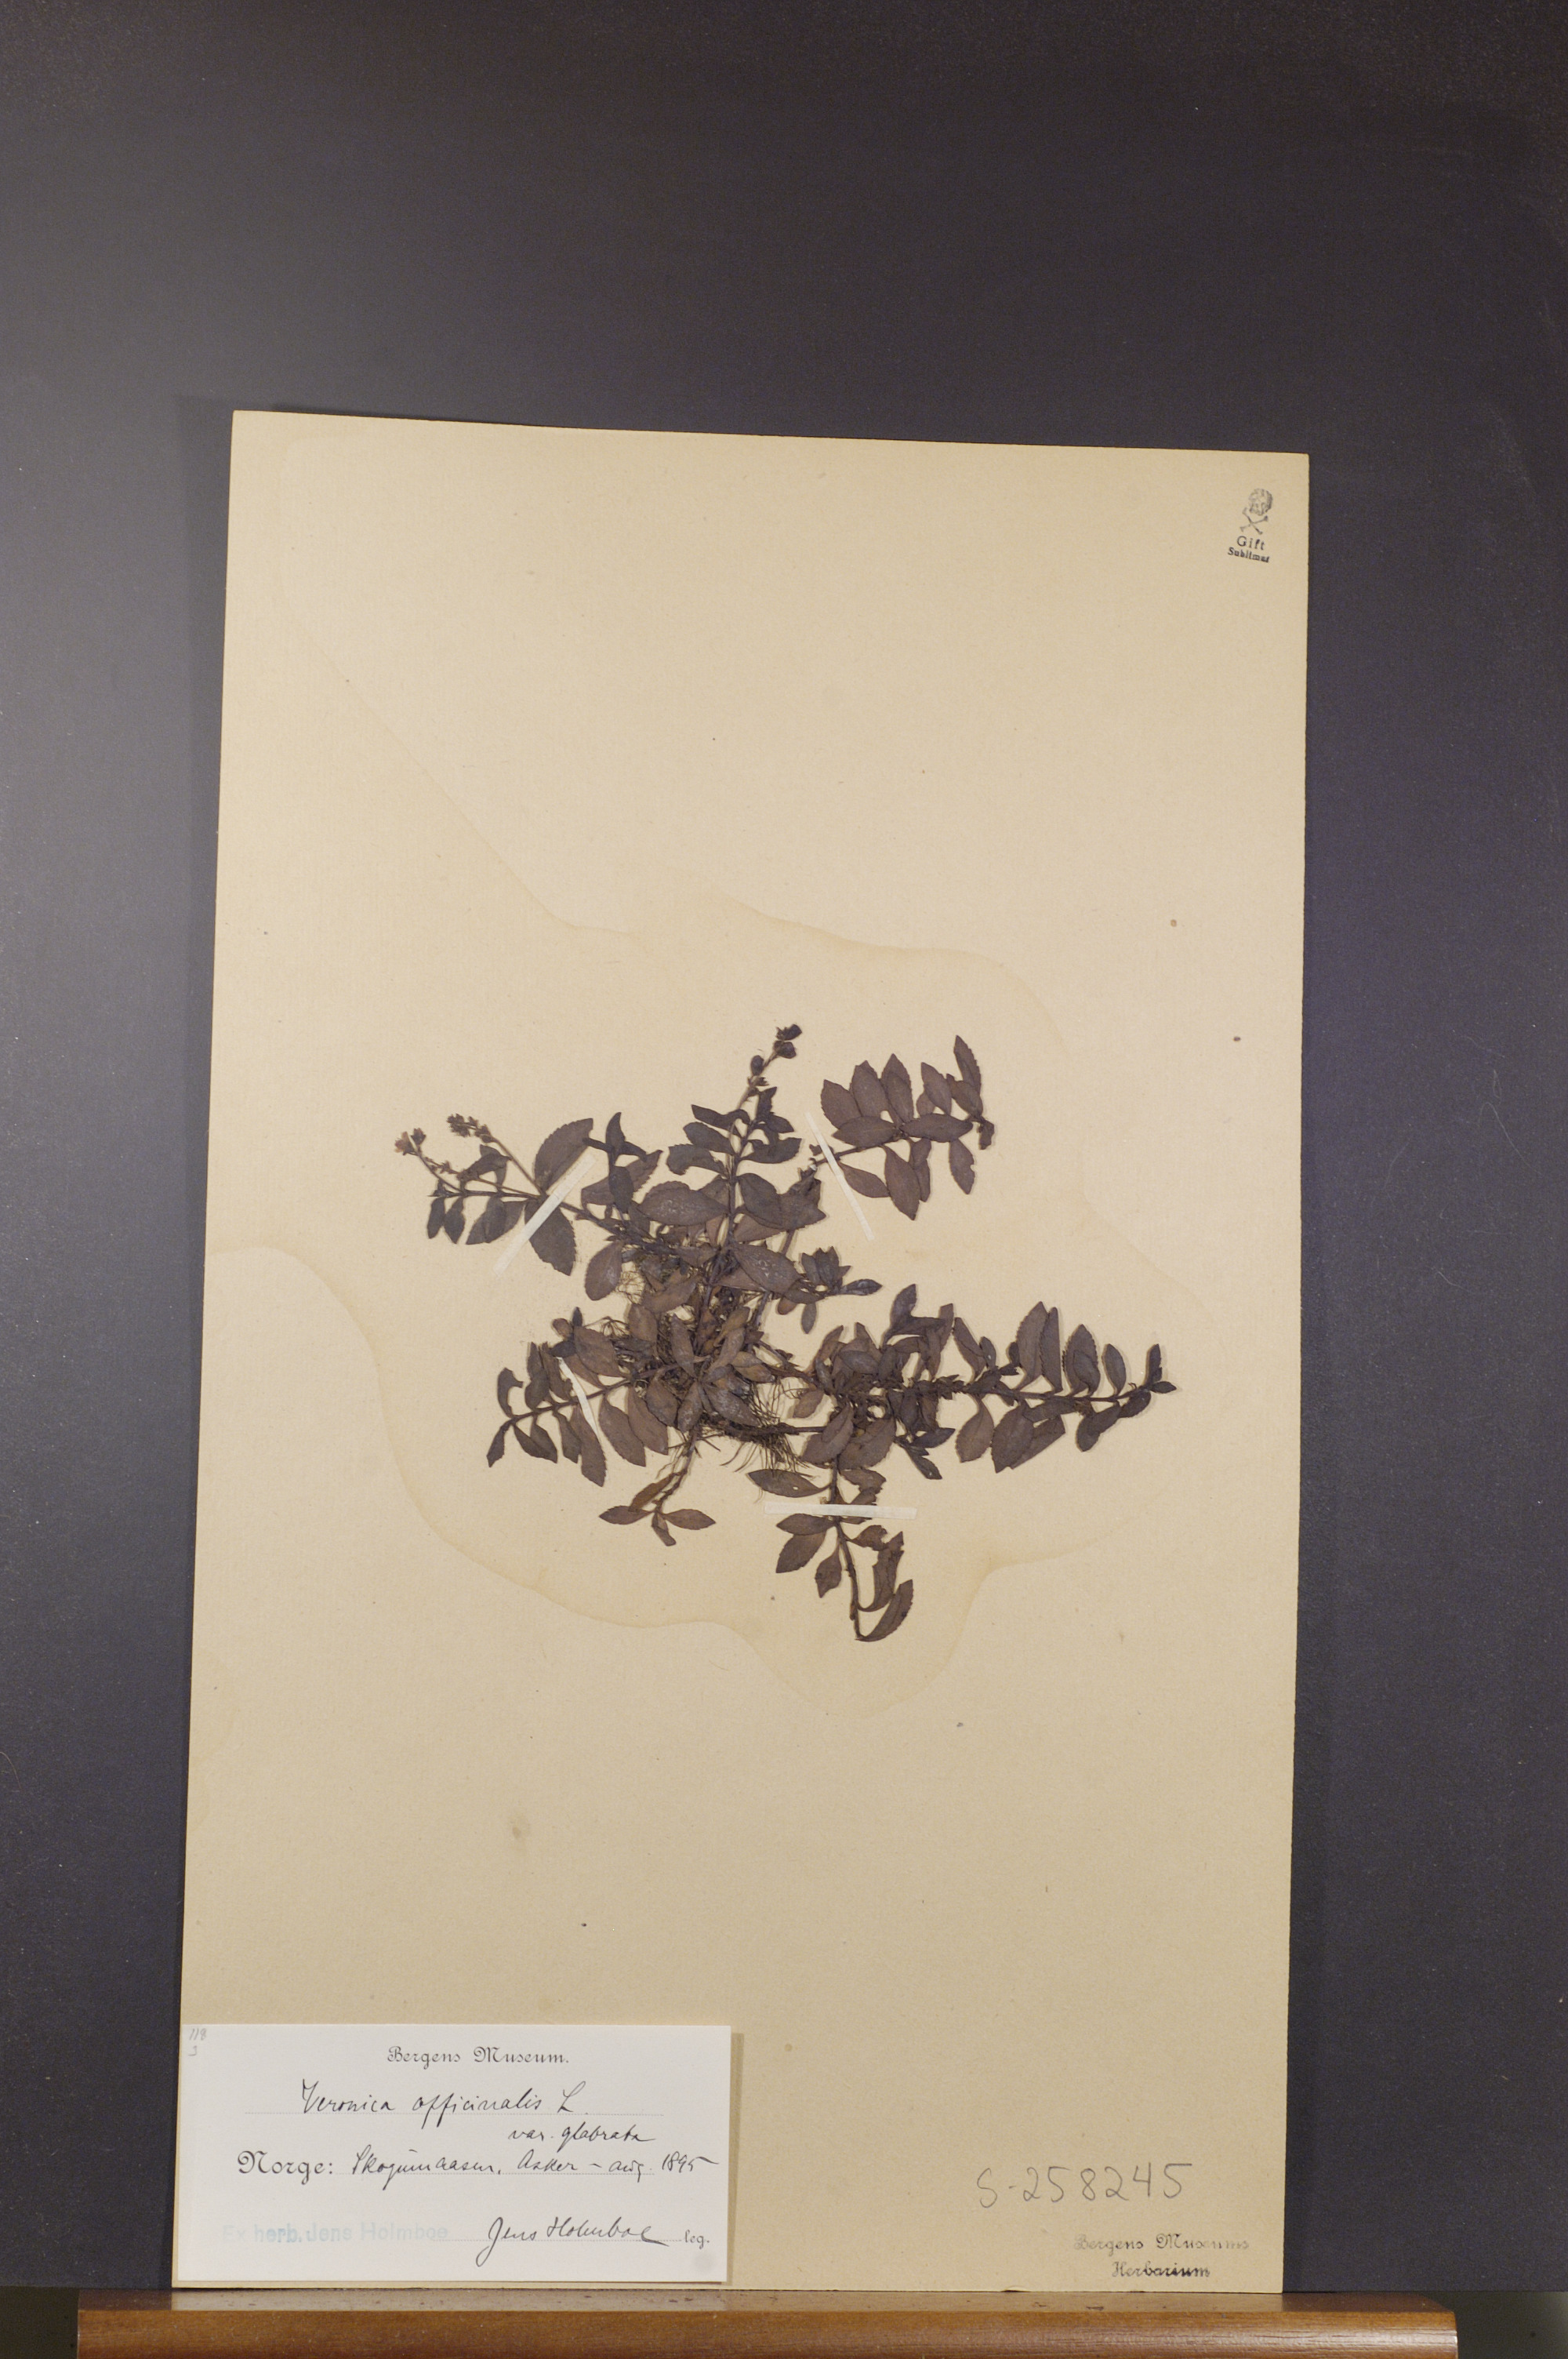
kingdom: Plantae
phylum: Tracheophyta
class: Magnoliopsida
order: Lamiales
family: Plantaginaceae
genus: Veronica
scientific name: Veronica officinalis
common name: Common speedwell
